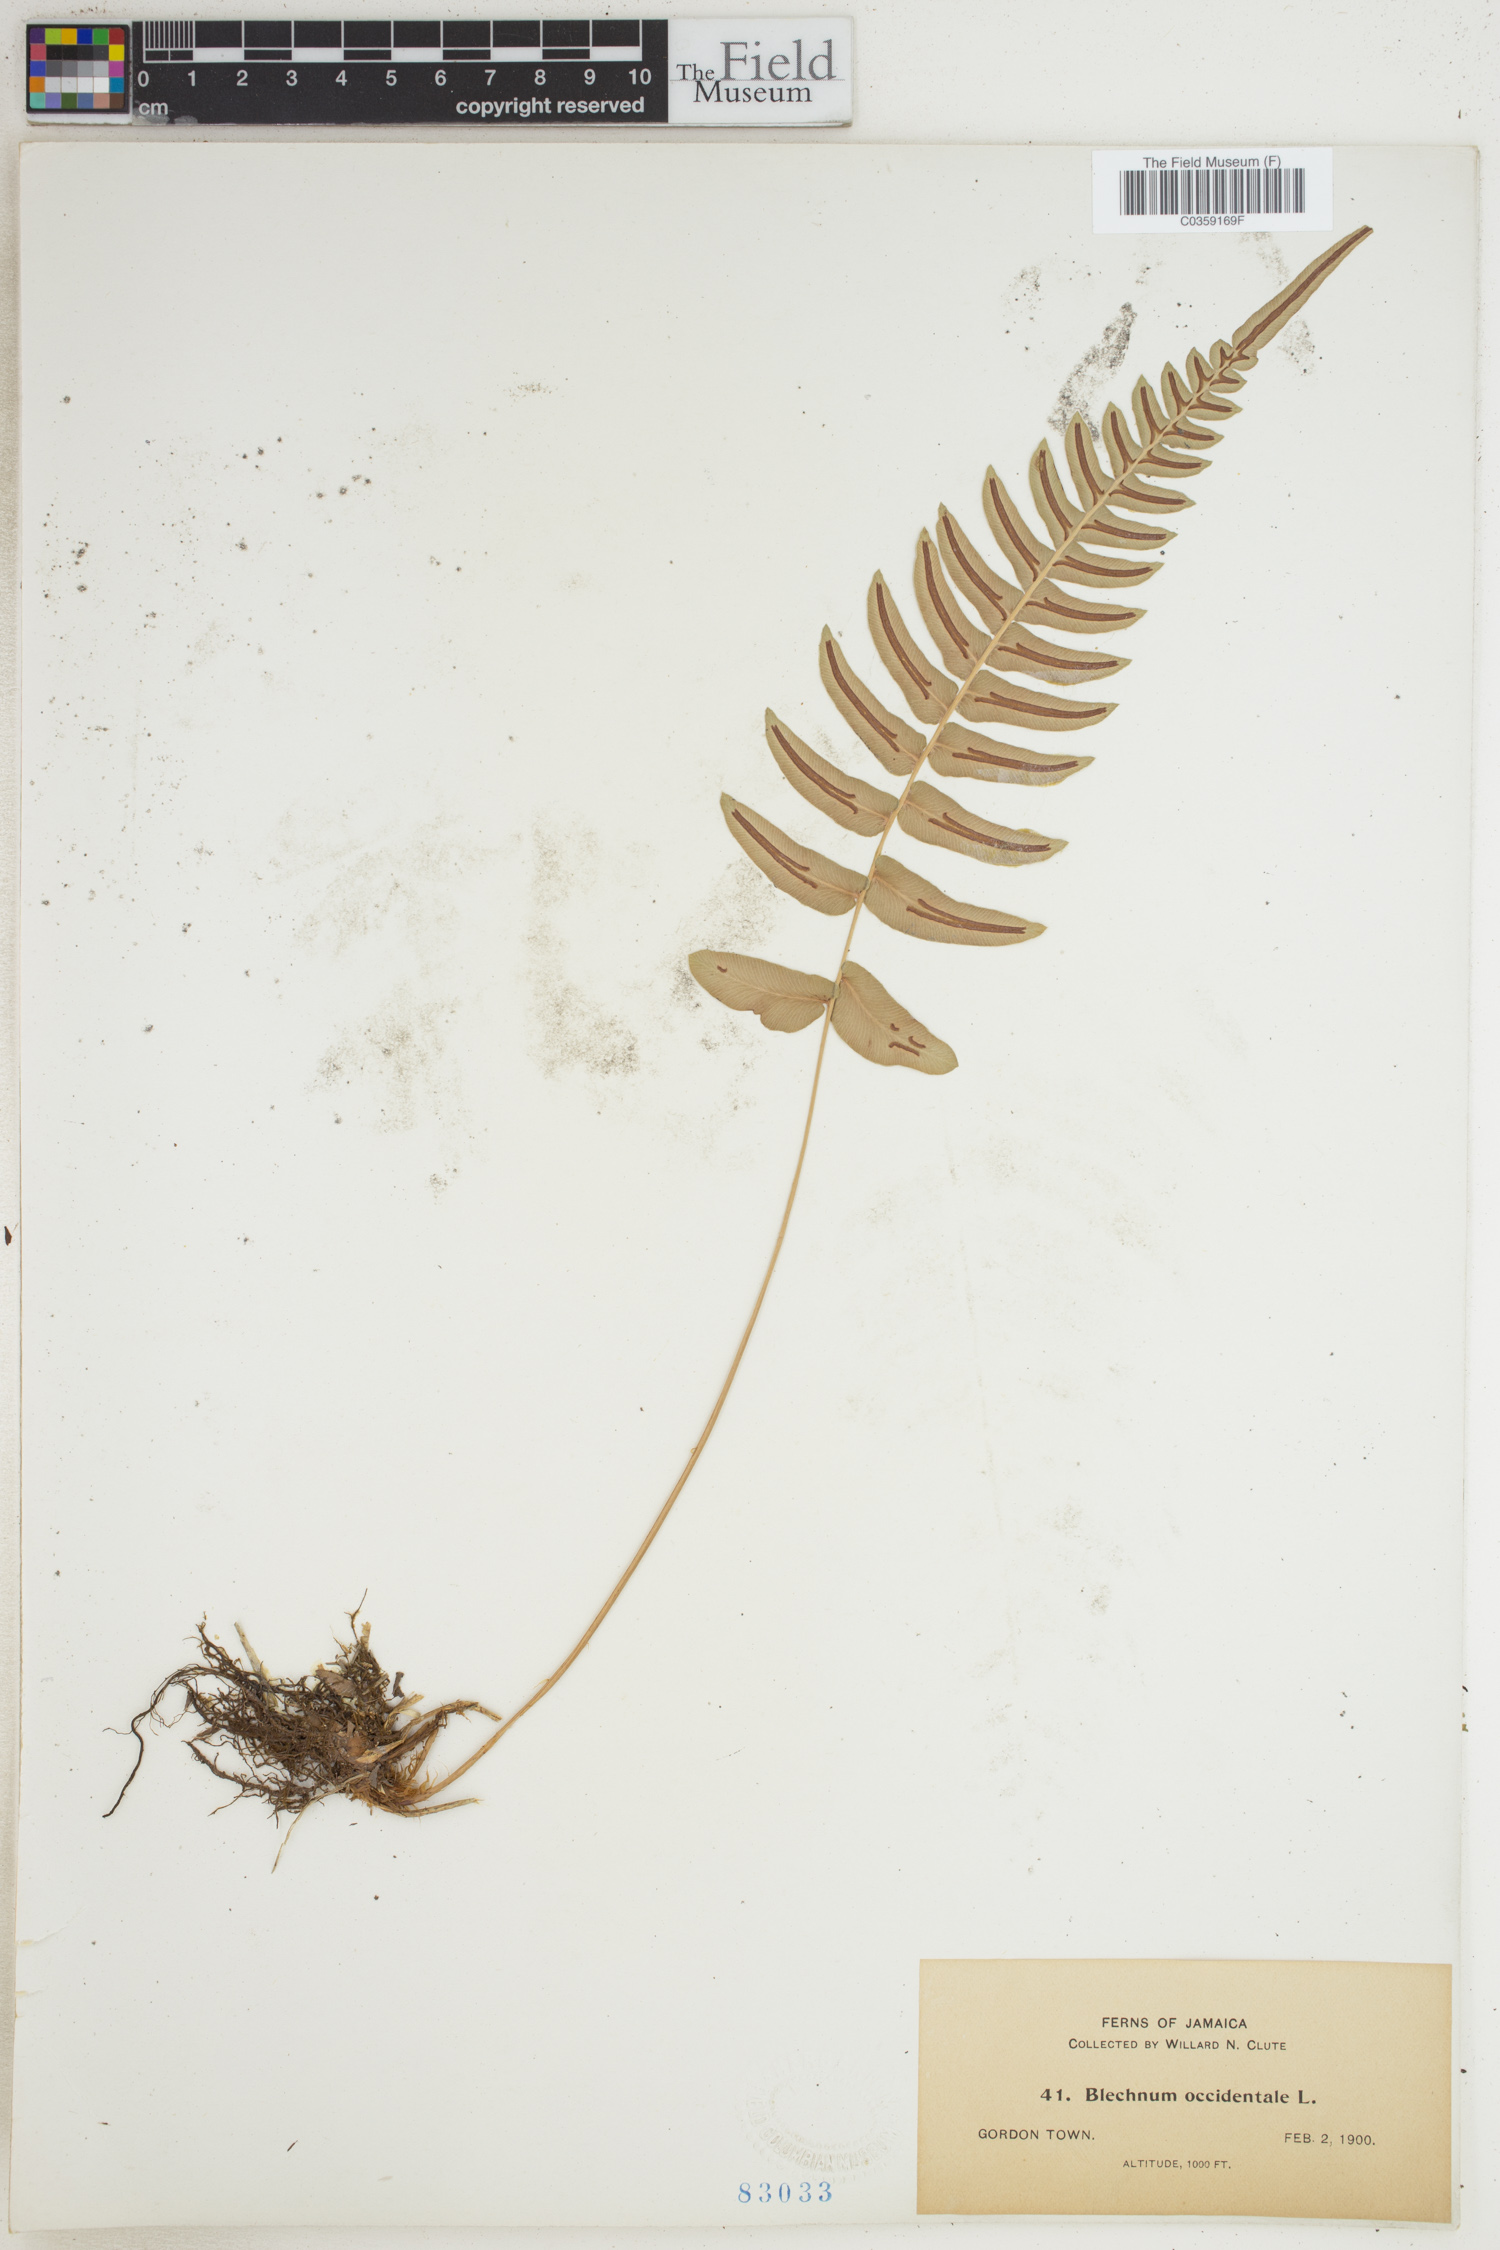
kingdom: Plantae
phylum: Tracheophyta
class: Polypodiopsida
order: Polypodiales
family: Blechnaceae
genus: Blechnum
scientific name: Blechnum occidentale
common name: Hammock fern
